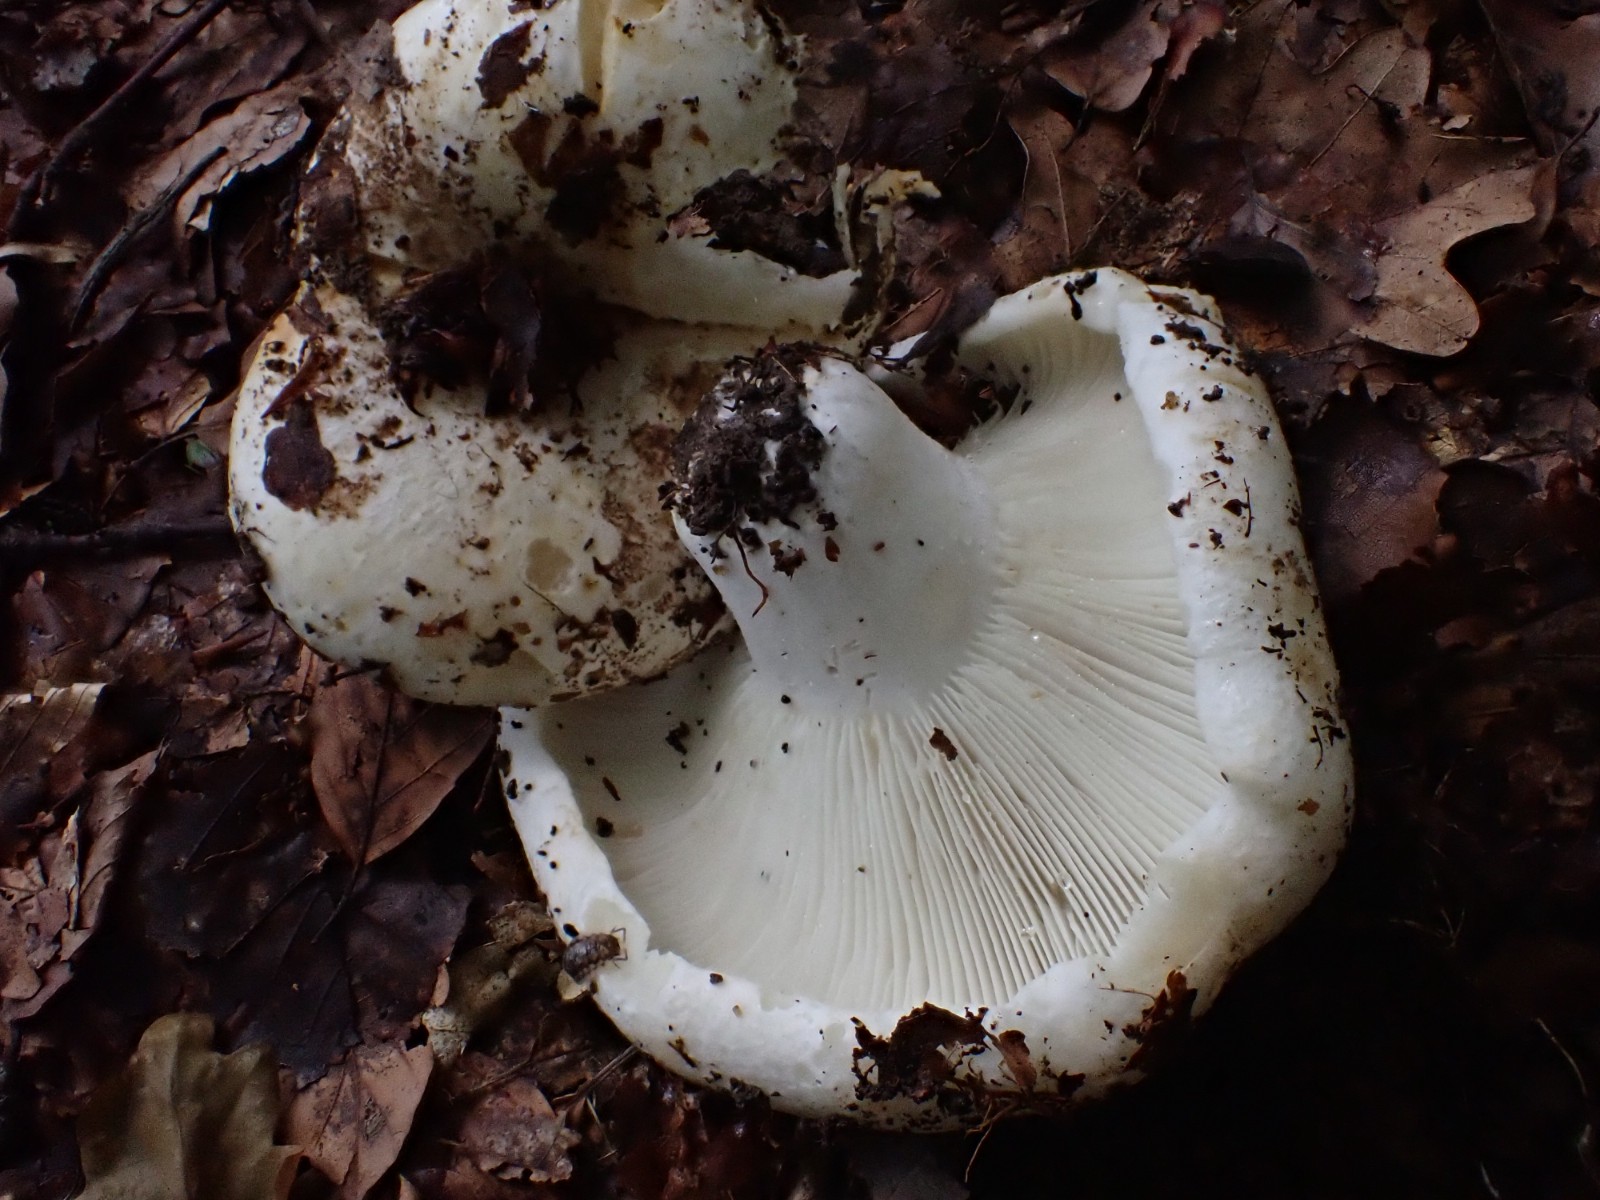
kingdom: Fungi
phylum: Basidiomycota
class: Agaricomycetes
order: Russulales
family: Russulaceae
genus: Russula
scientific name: Russula chloroides
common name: grønhalset tragt-skørhat
